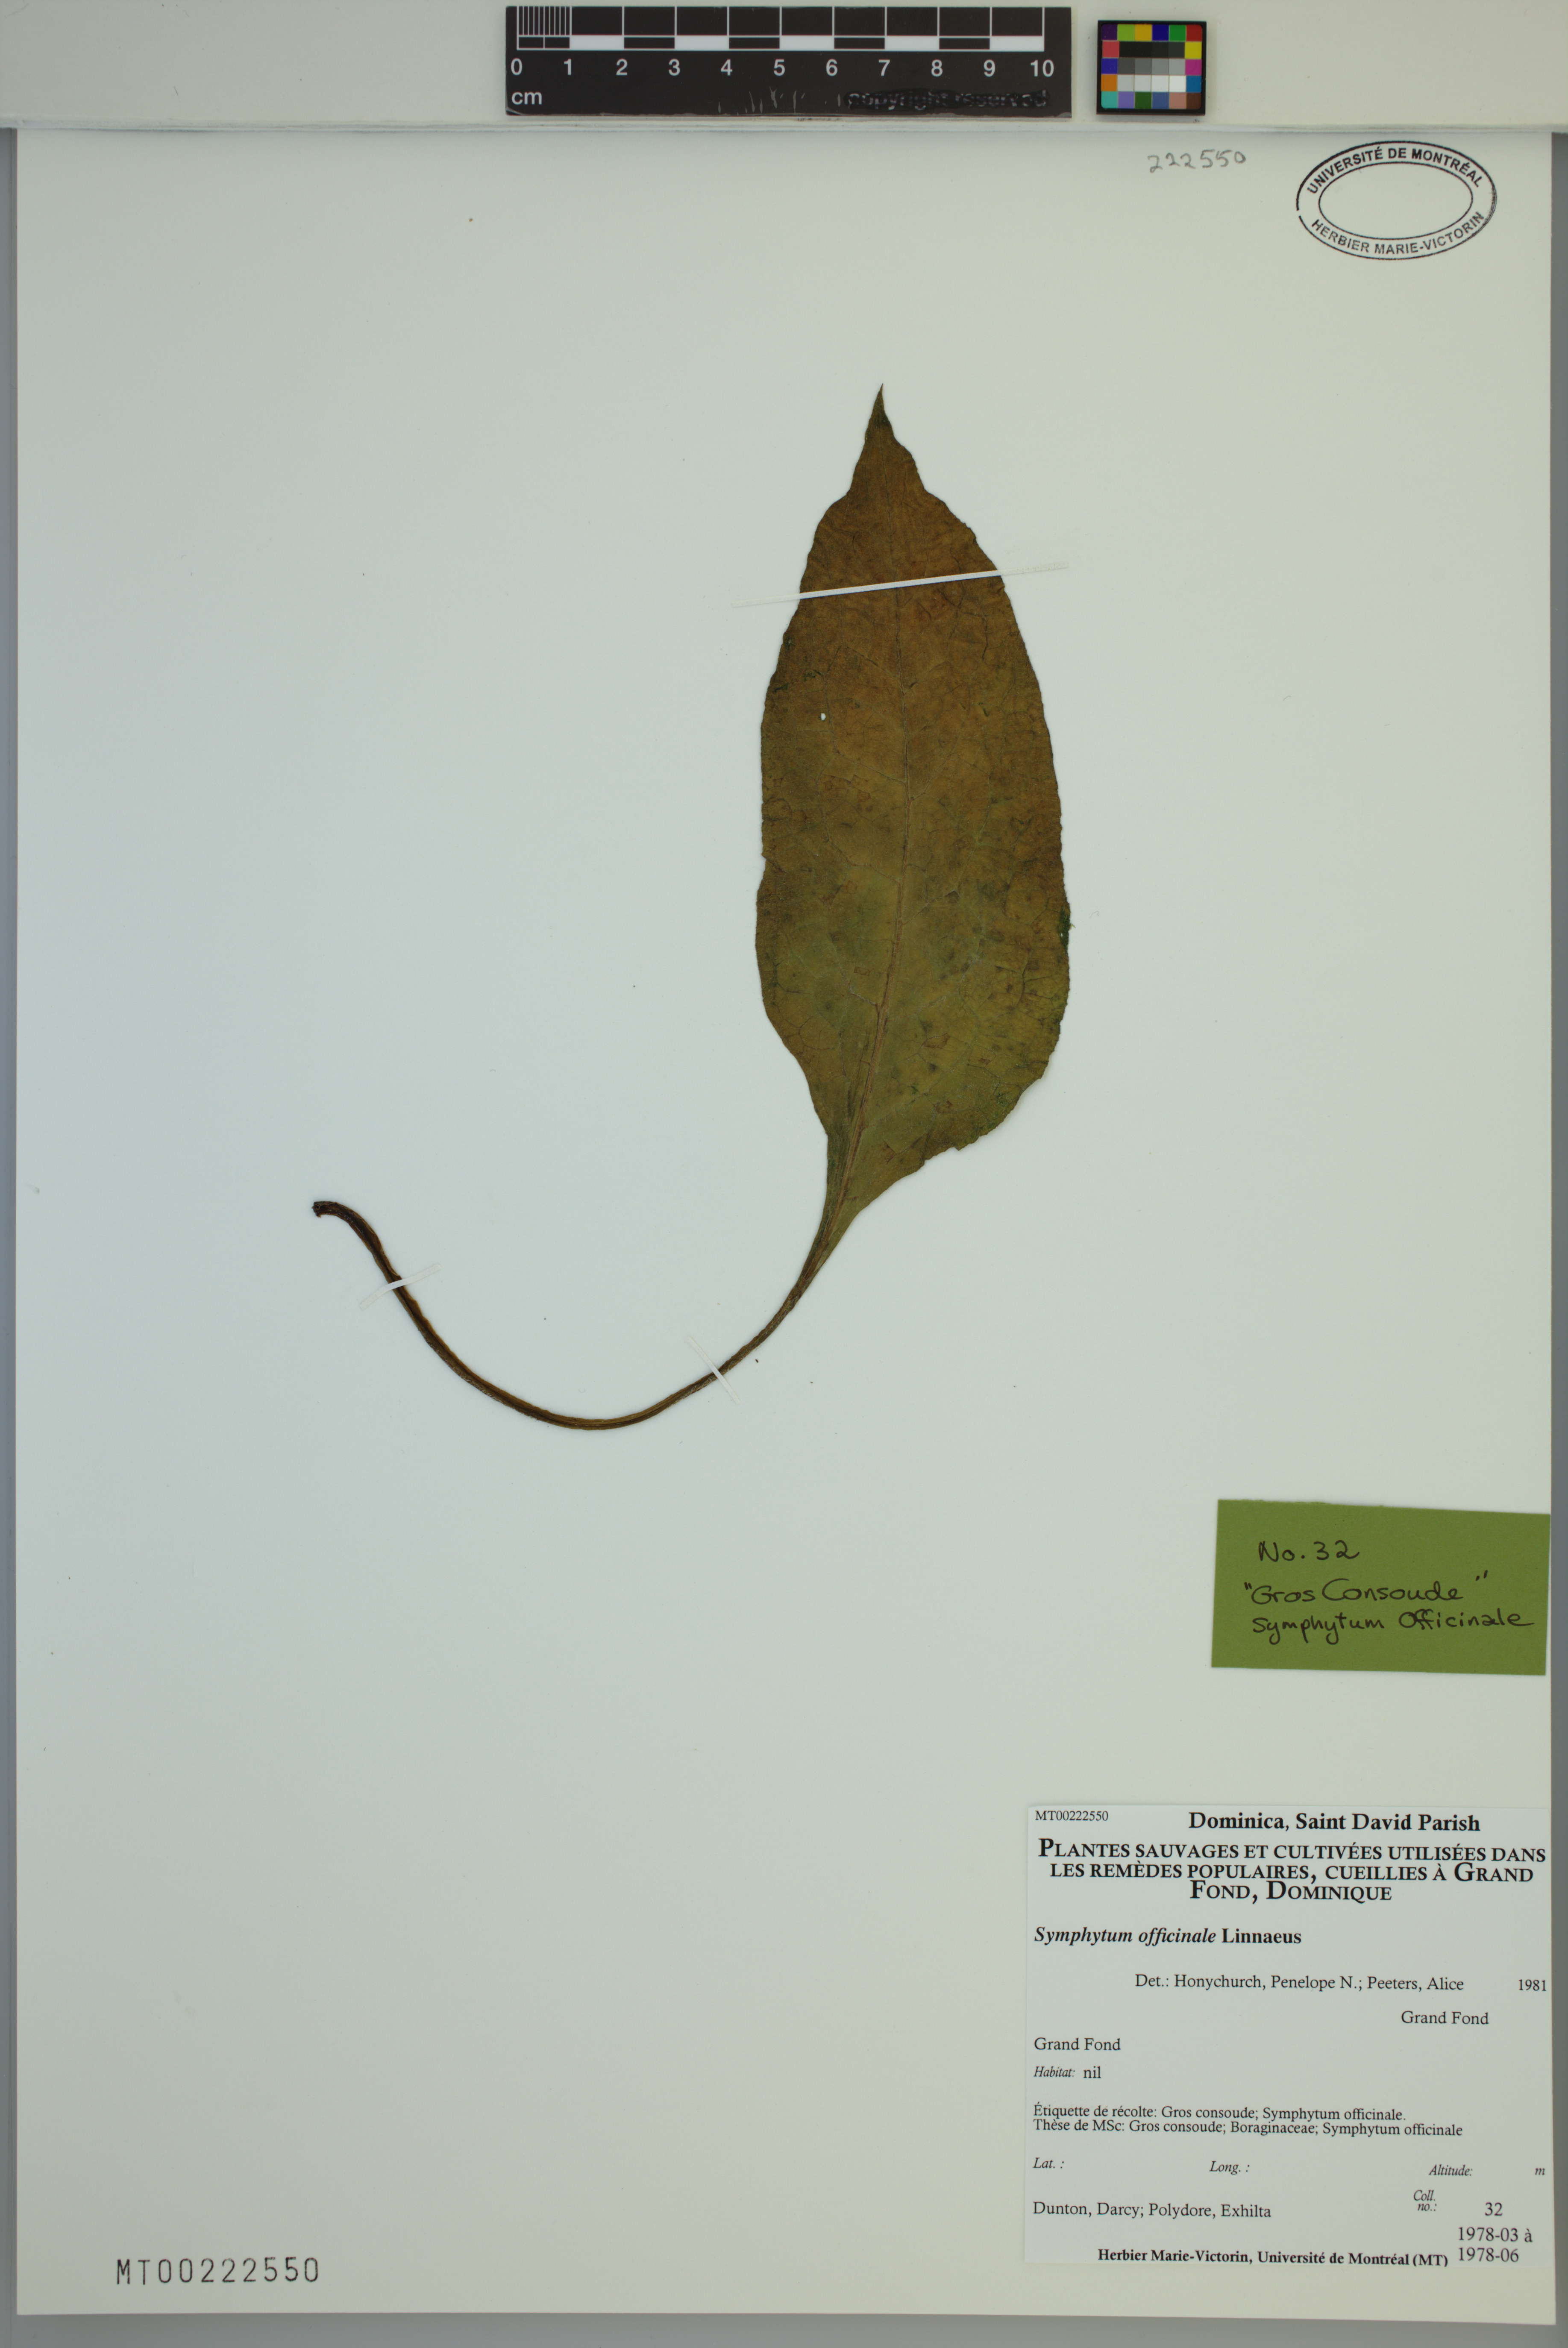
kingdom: Plantae
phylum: Tracheophyta
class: Magnoliopsida
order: Boraginales
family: Boraginaceae
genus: Symphytum
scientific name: Symphytum officinale
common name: Common comfrey
